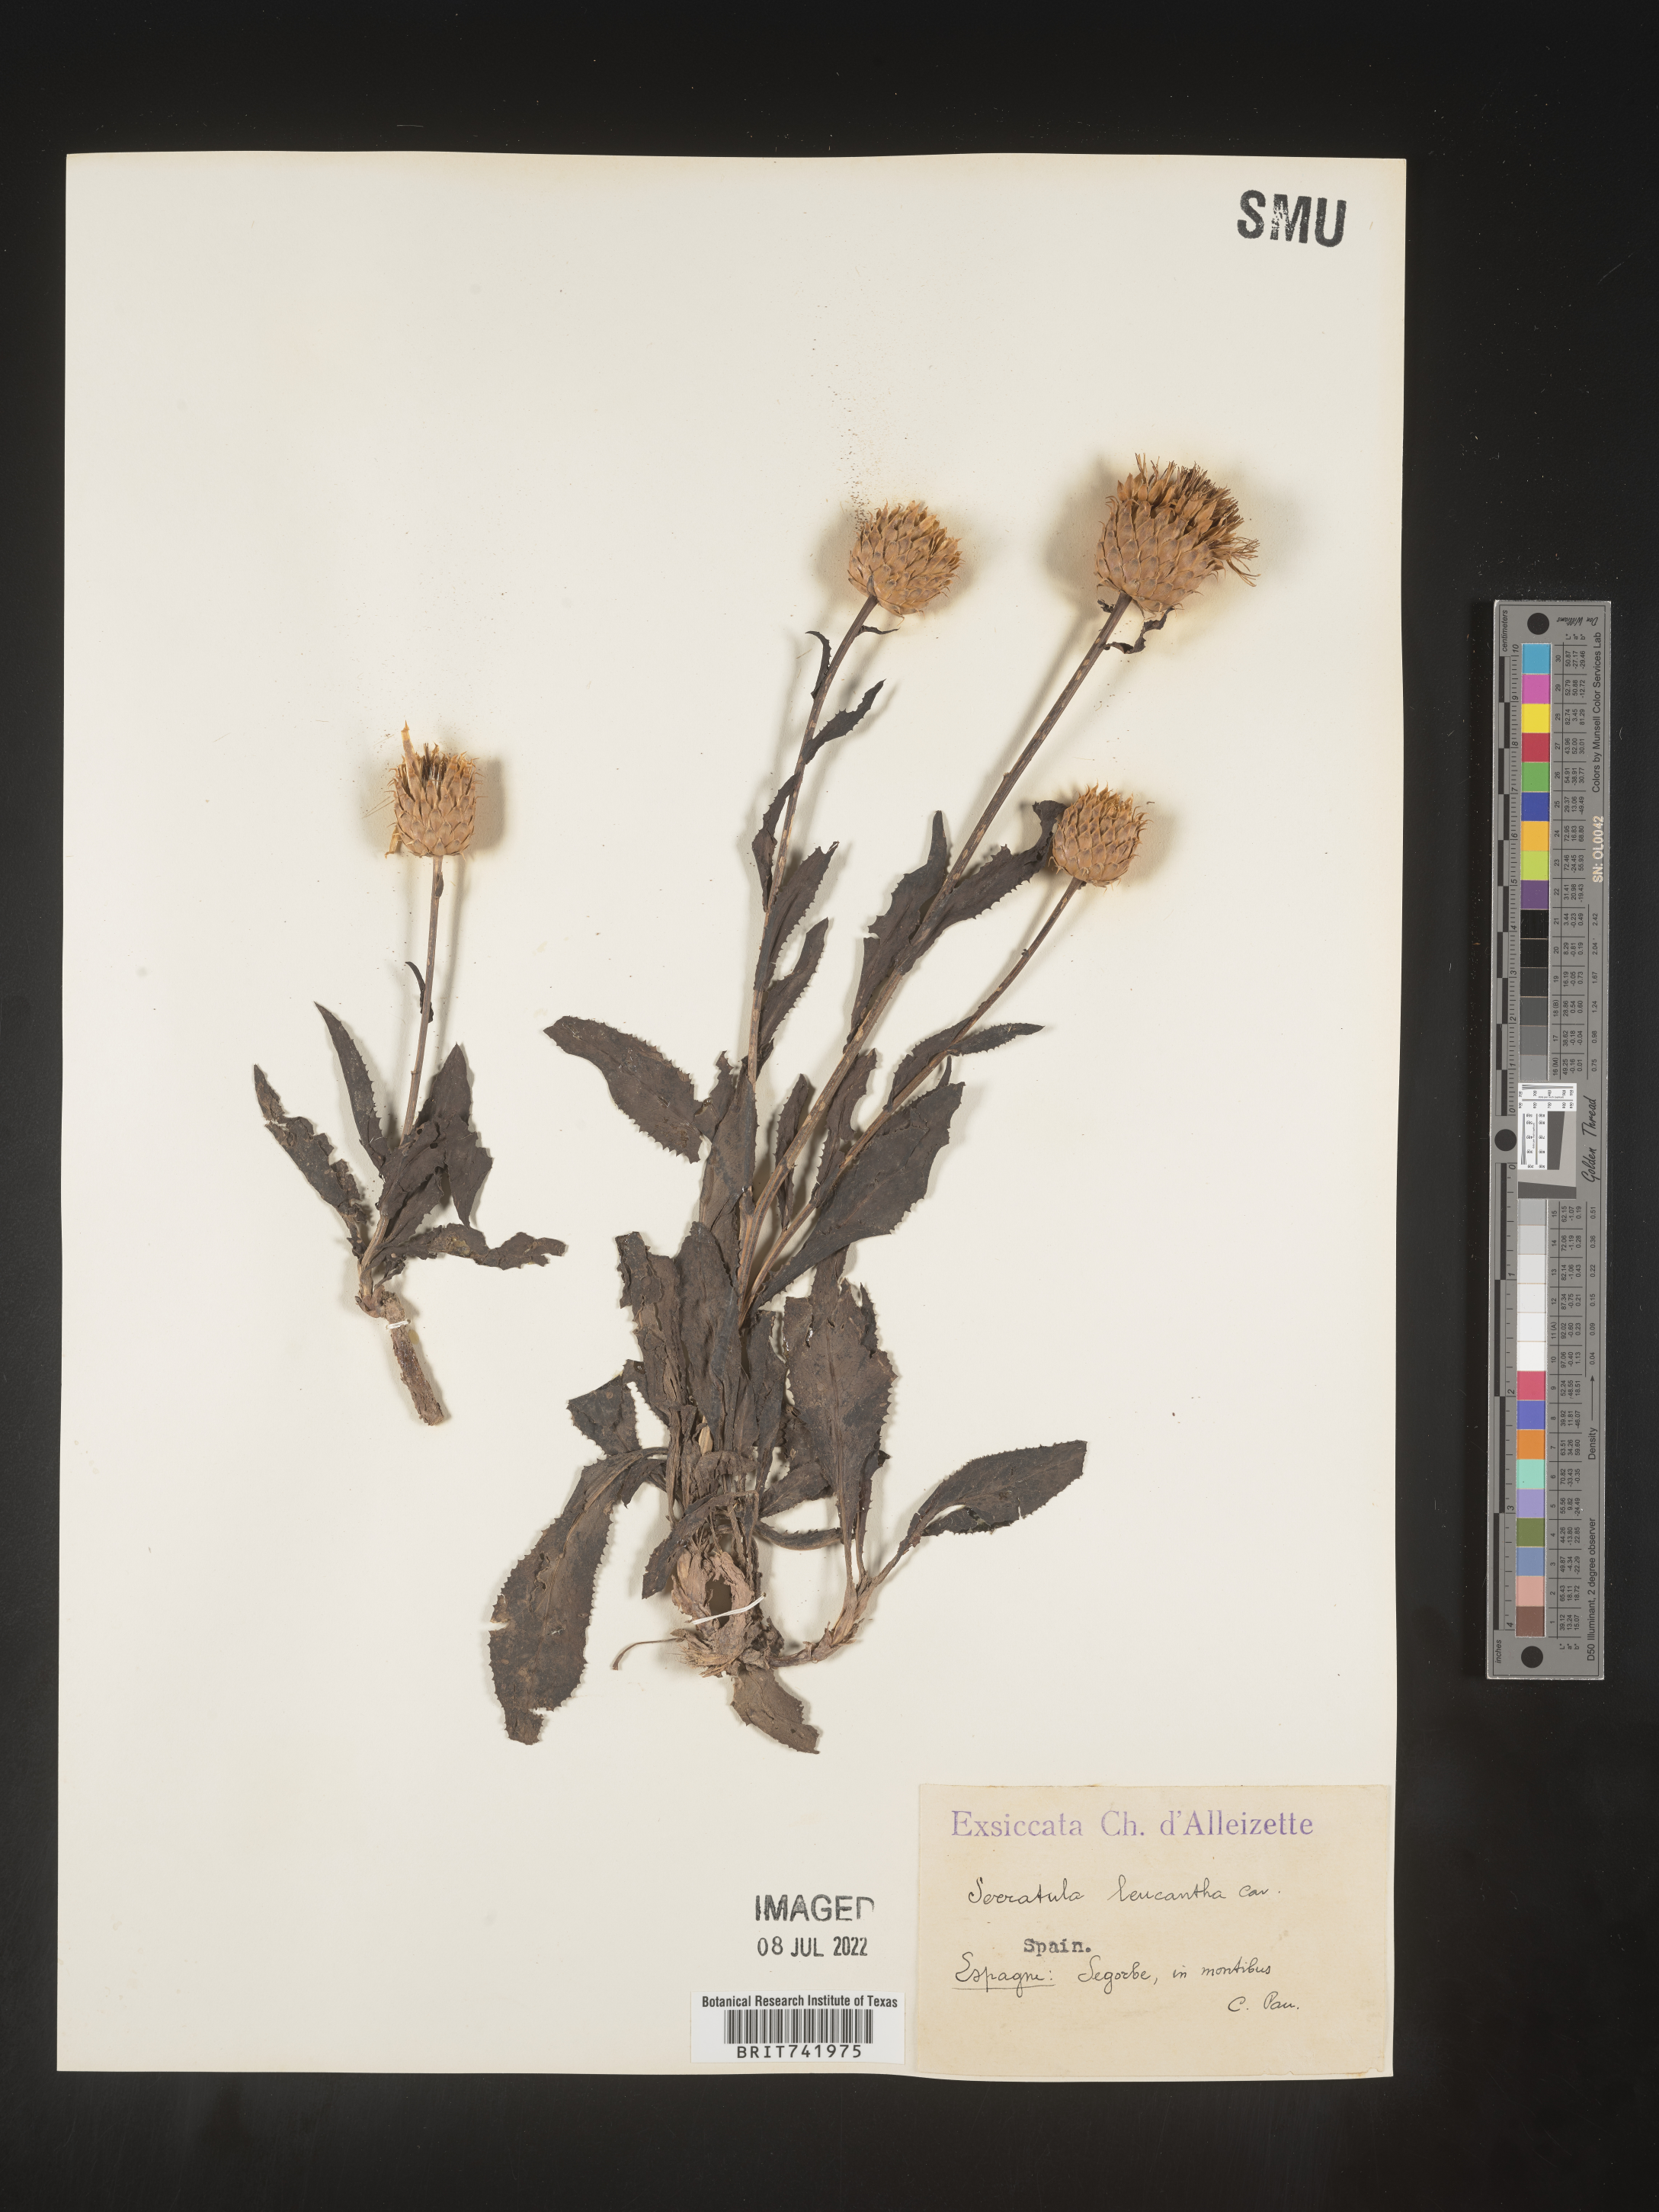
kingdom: Plantae
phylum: Tracheophyta
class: Magnoliopsida
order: Asterales
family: Asteraceae
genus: Serratula
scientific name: Serratula
